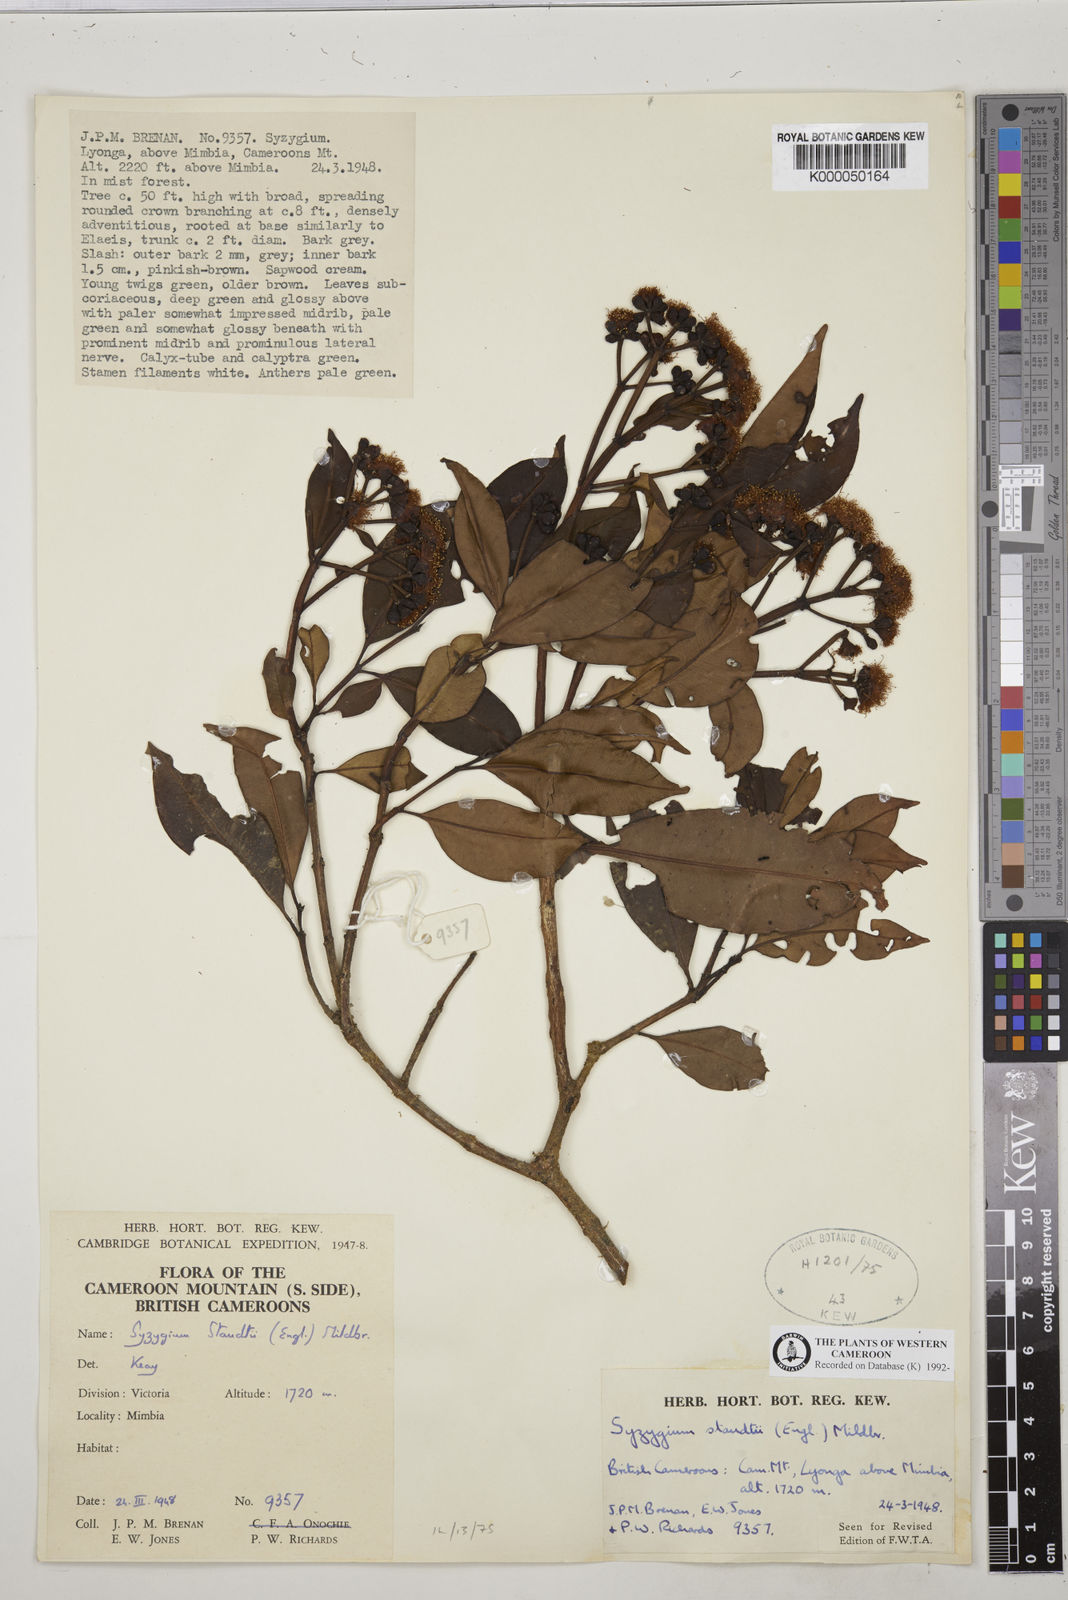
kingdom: Plantae
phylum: Tracheophyta
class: Magnoliopsida
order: Myrtales
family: Myrtaceae
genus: Syzygium
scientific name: Syzygium staudtii
